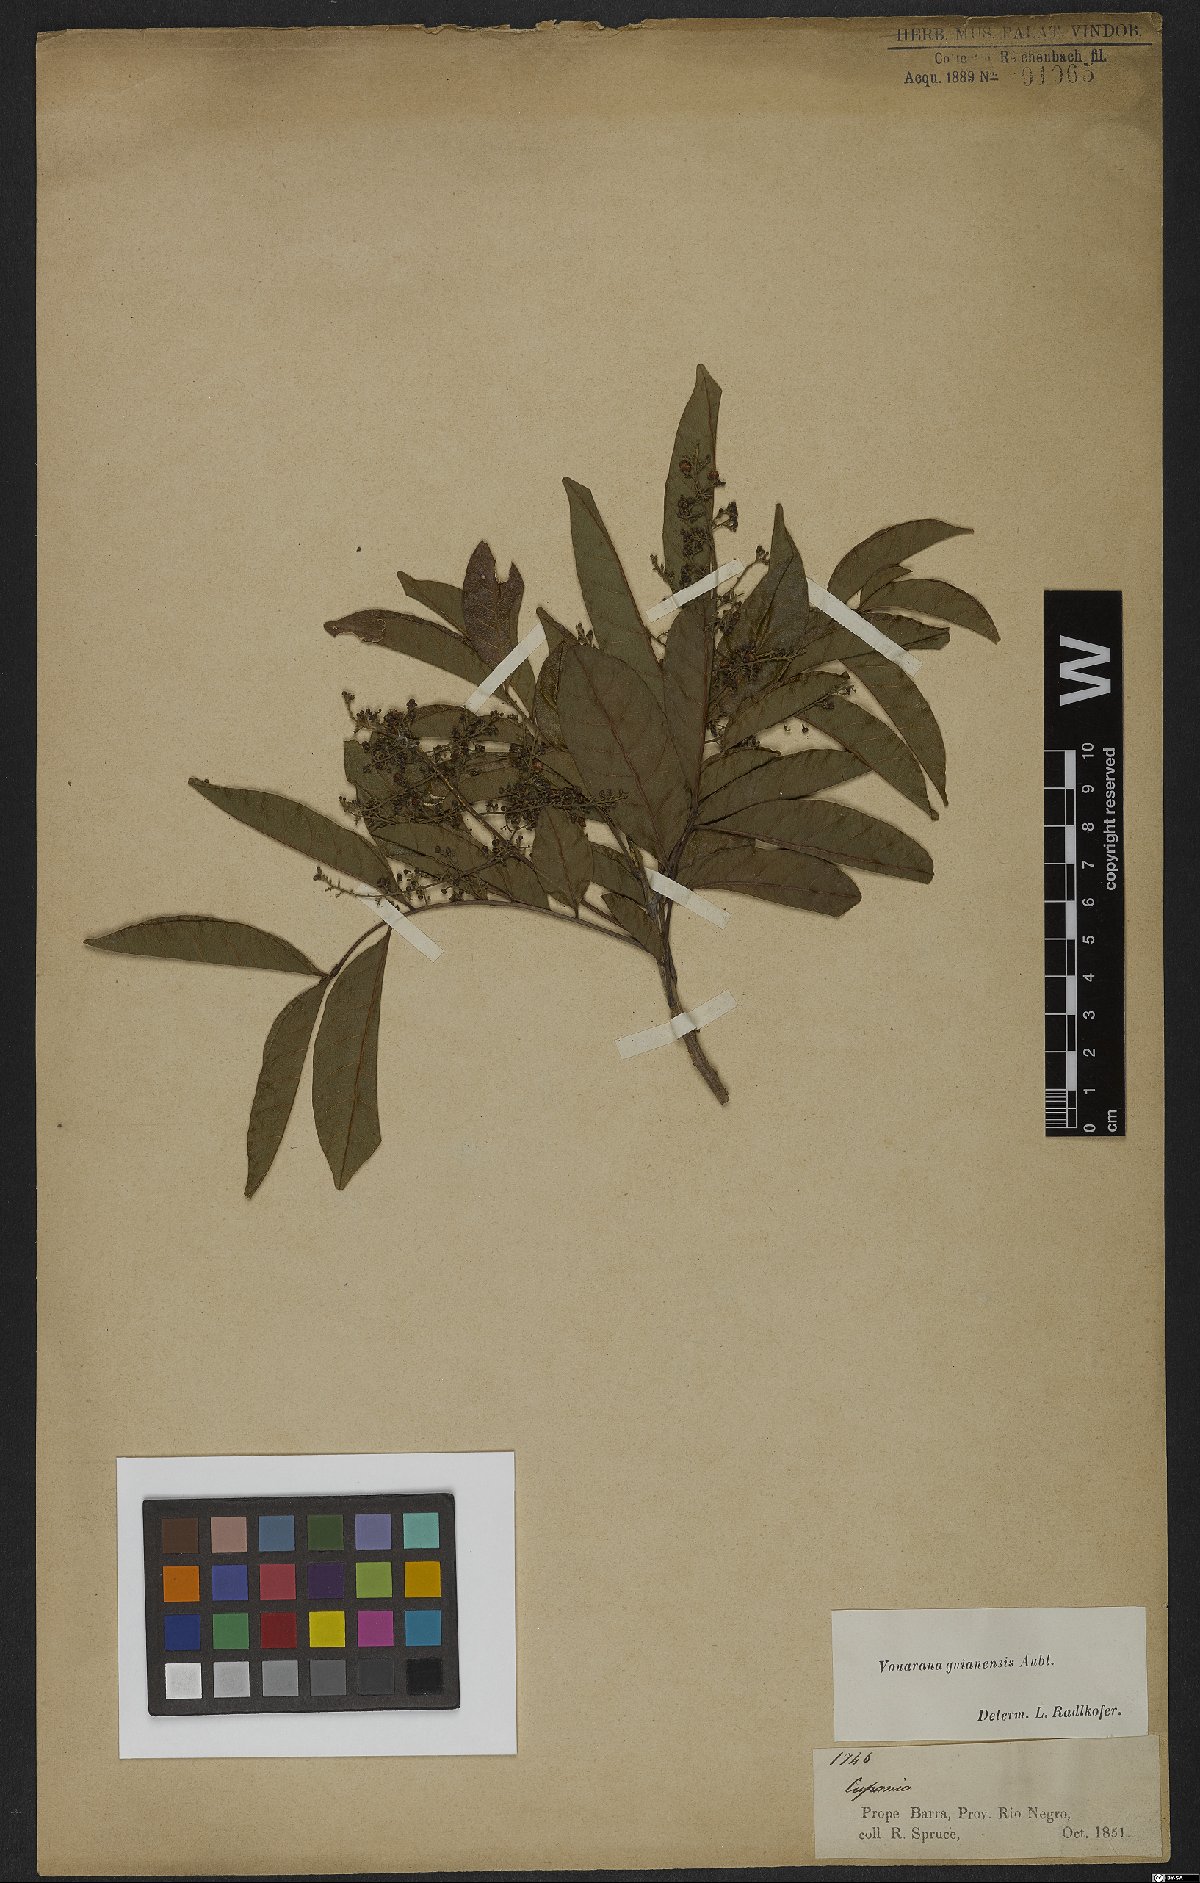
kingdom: Plantae
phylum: Tracheophyta
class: Magnoliopsida
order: Sapindales
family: Sapindaceae
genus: Vouarana
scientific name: Vouarana guianensis
